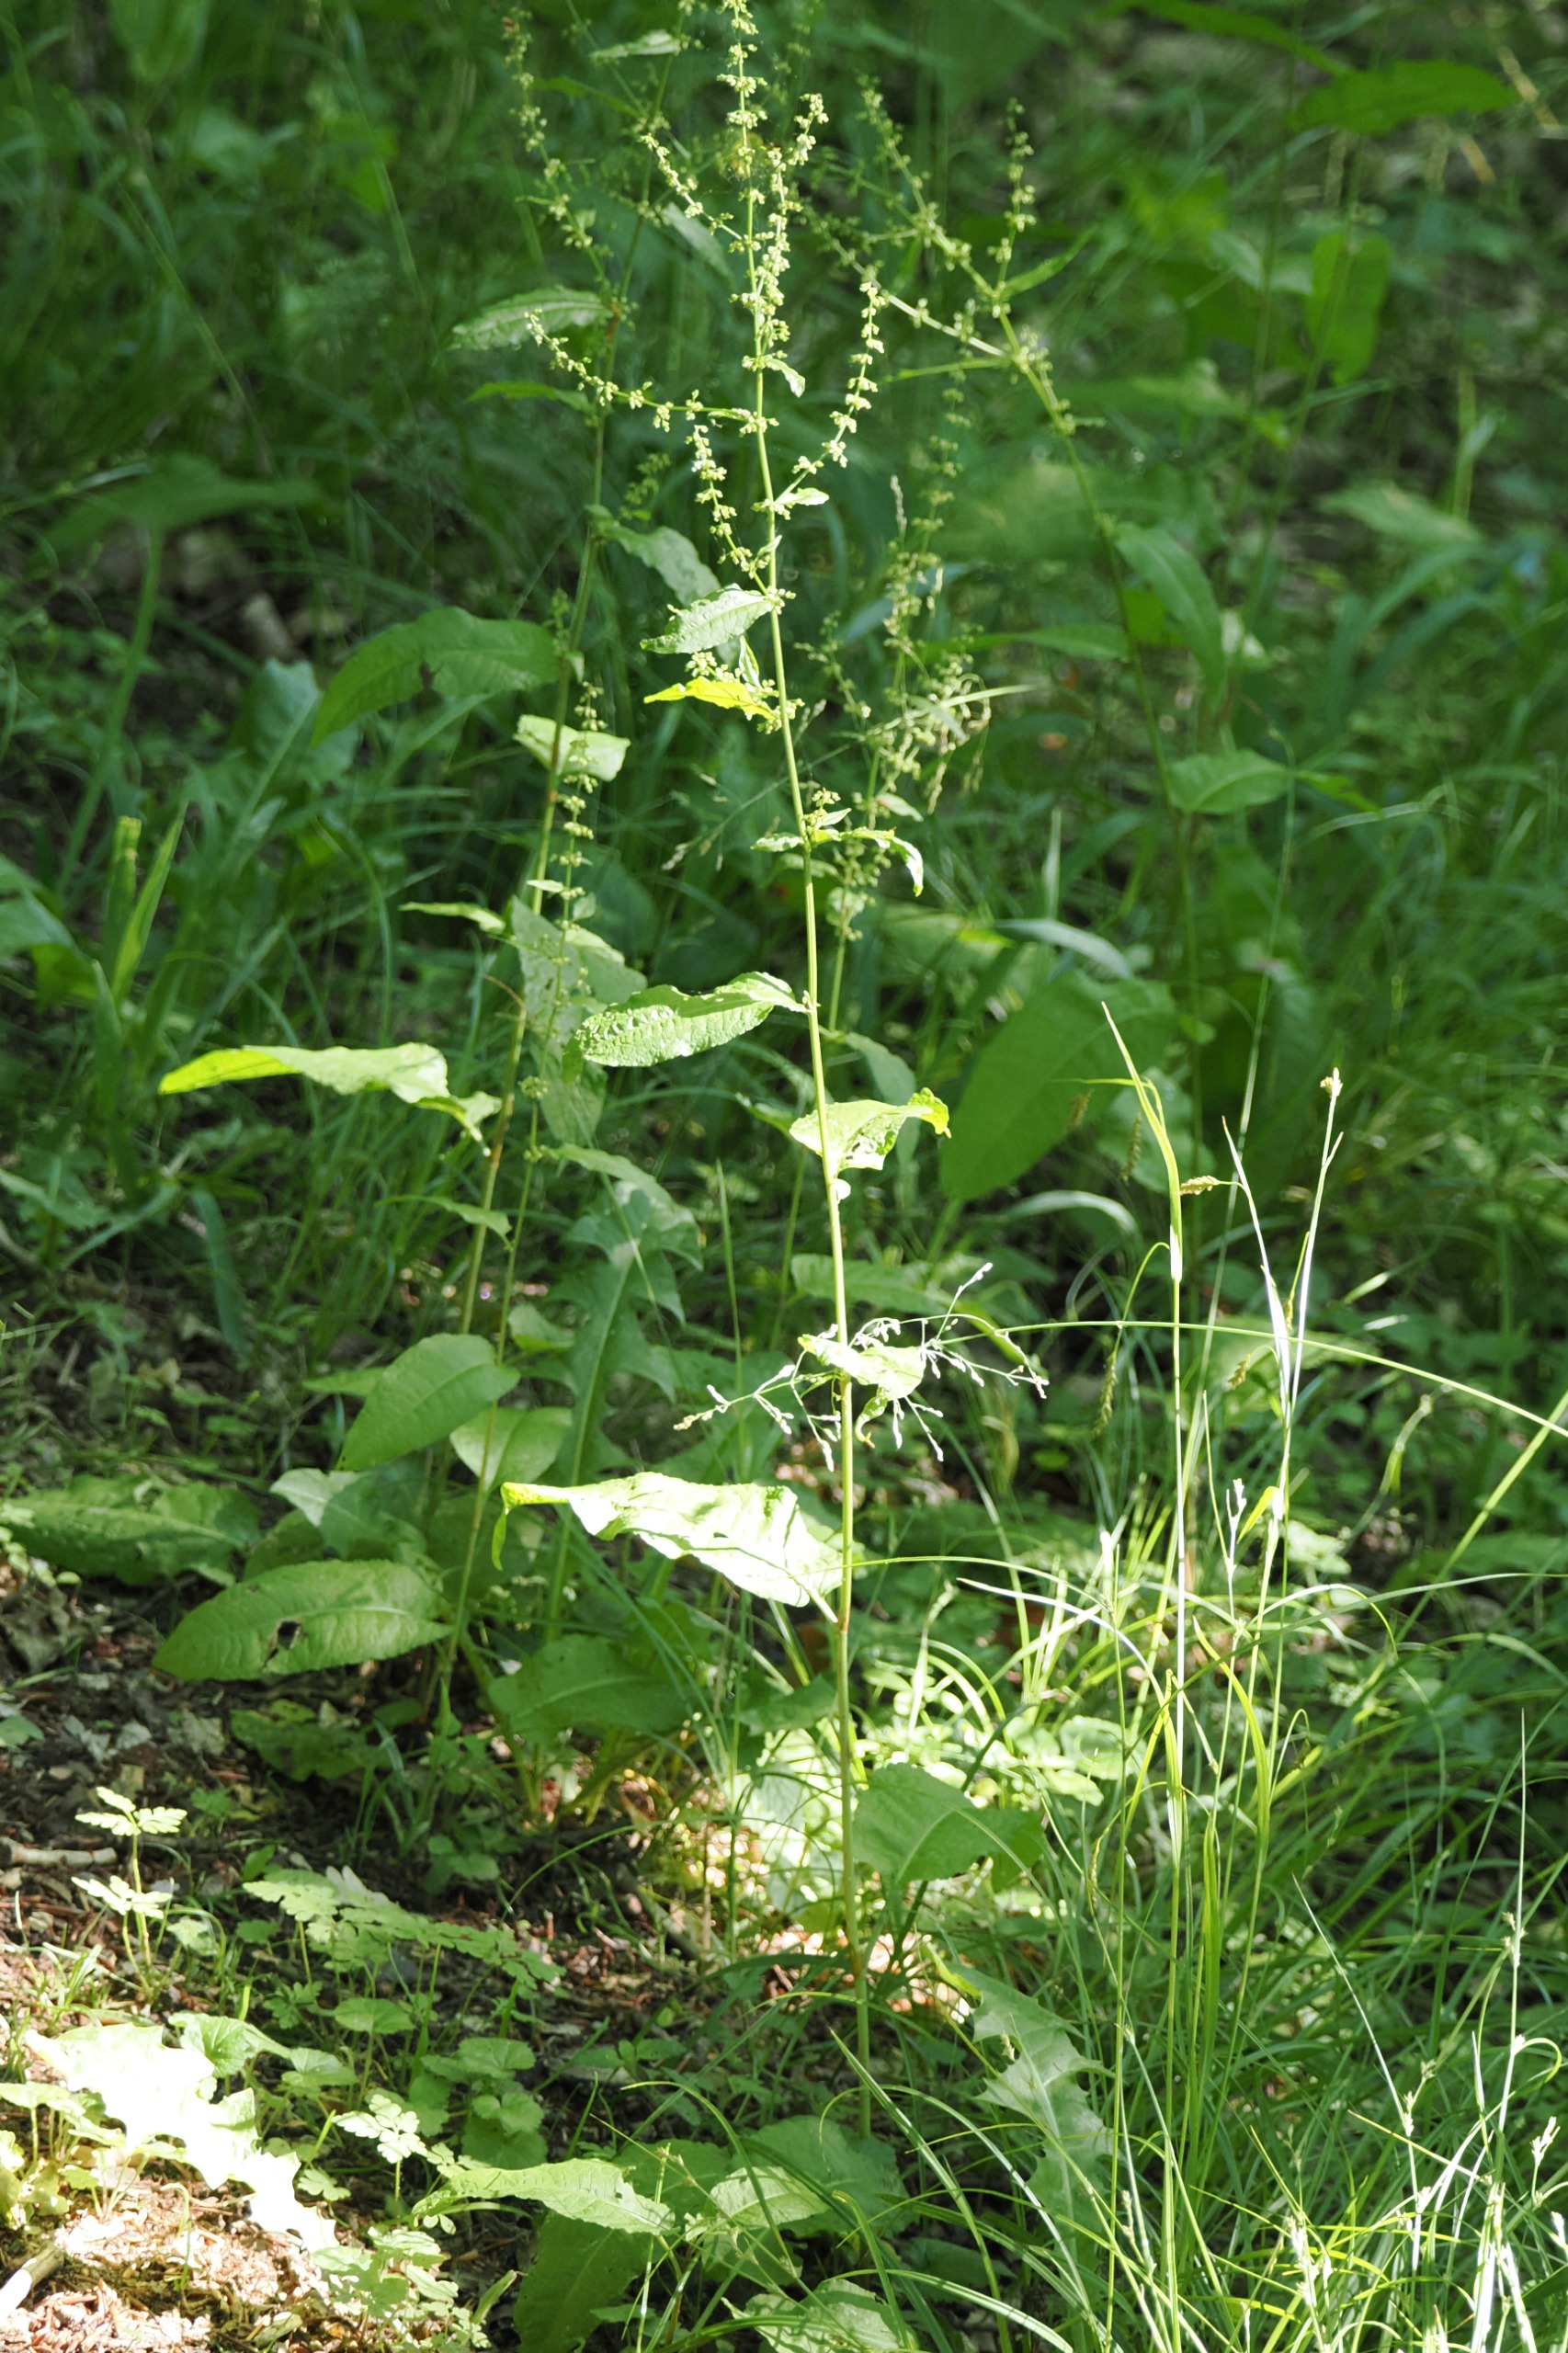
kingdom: Plantae
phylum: Tracheophyta
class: Magnoliopsida
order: Caryophyllales
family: Polygonaceae
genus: Rumex
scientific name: Rumex sanguineus
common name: Skov-skræppe
